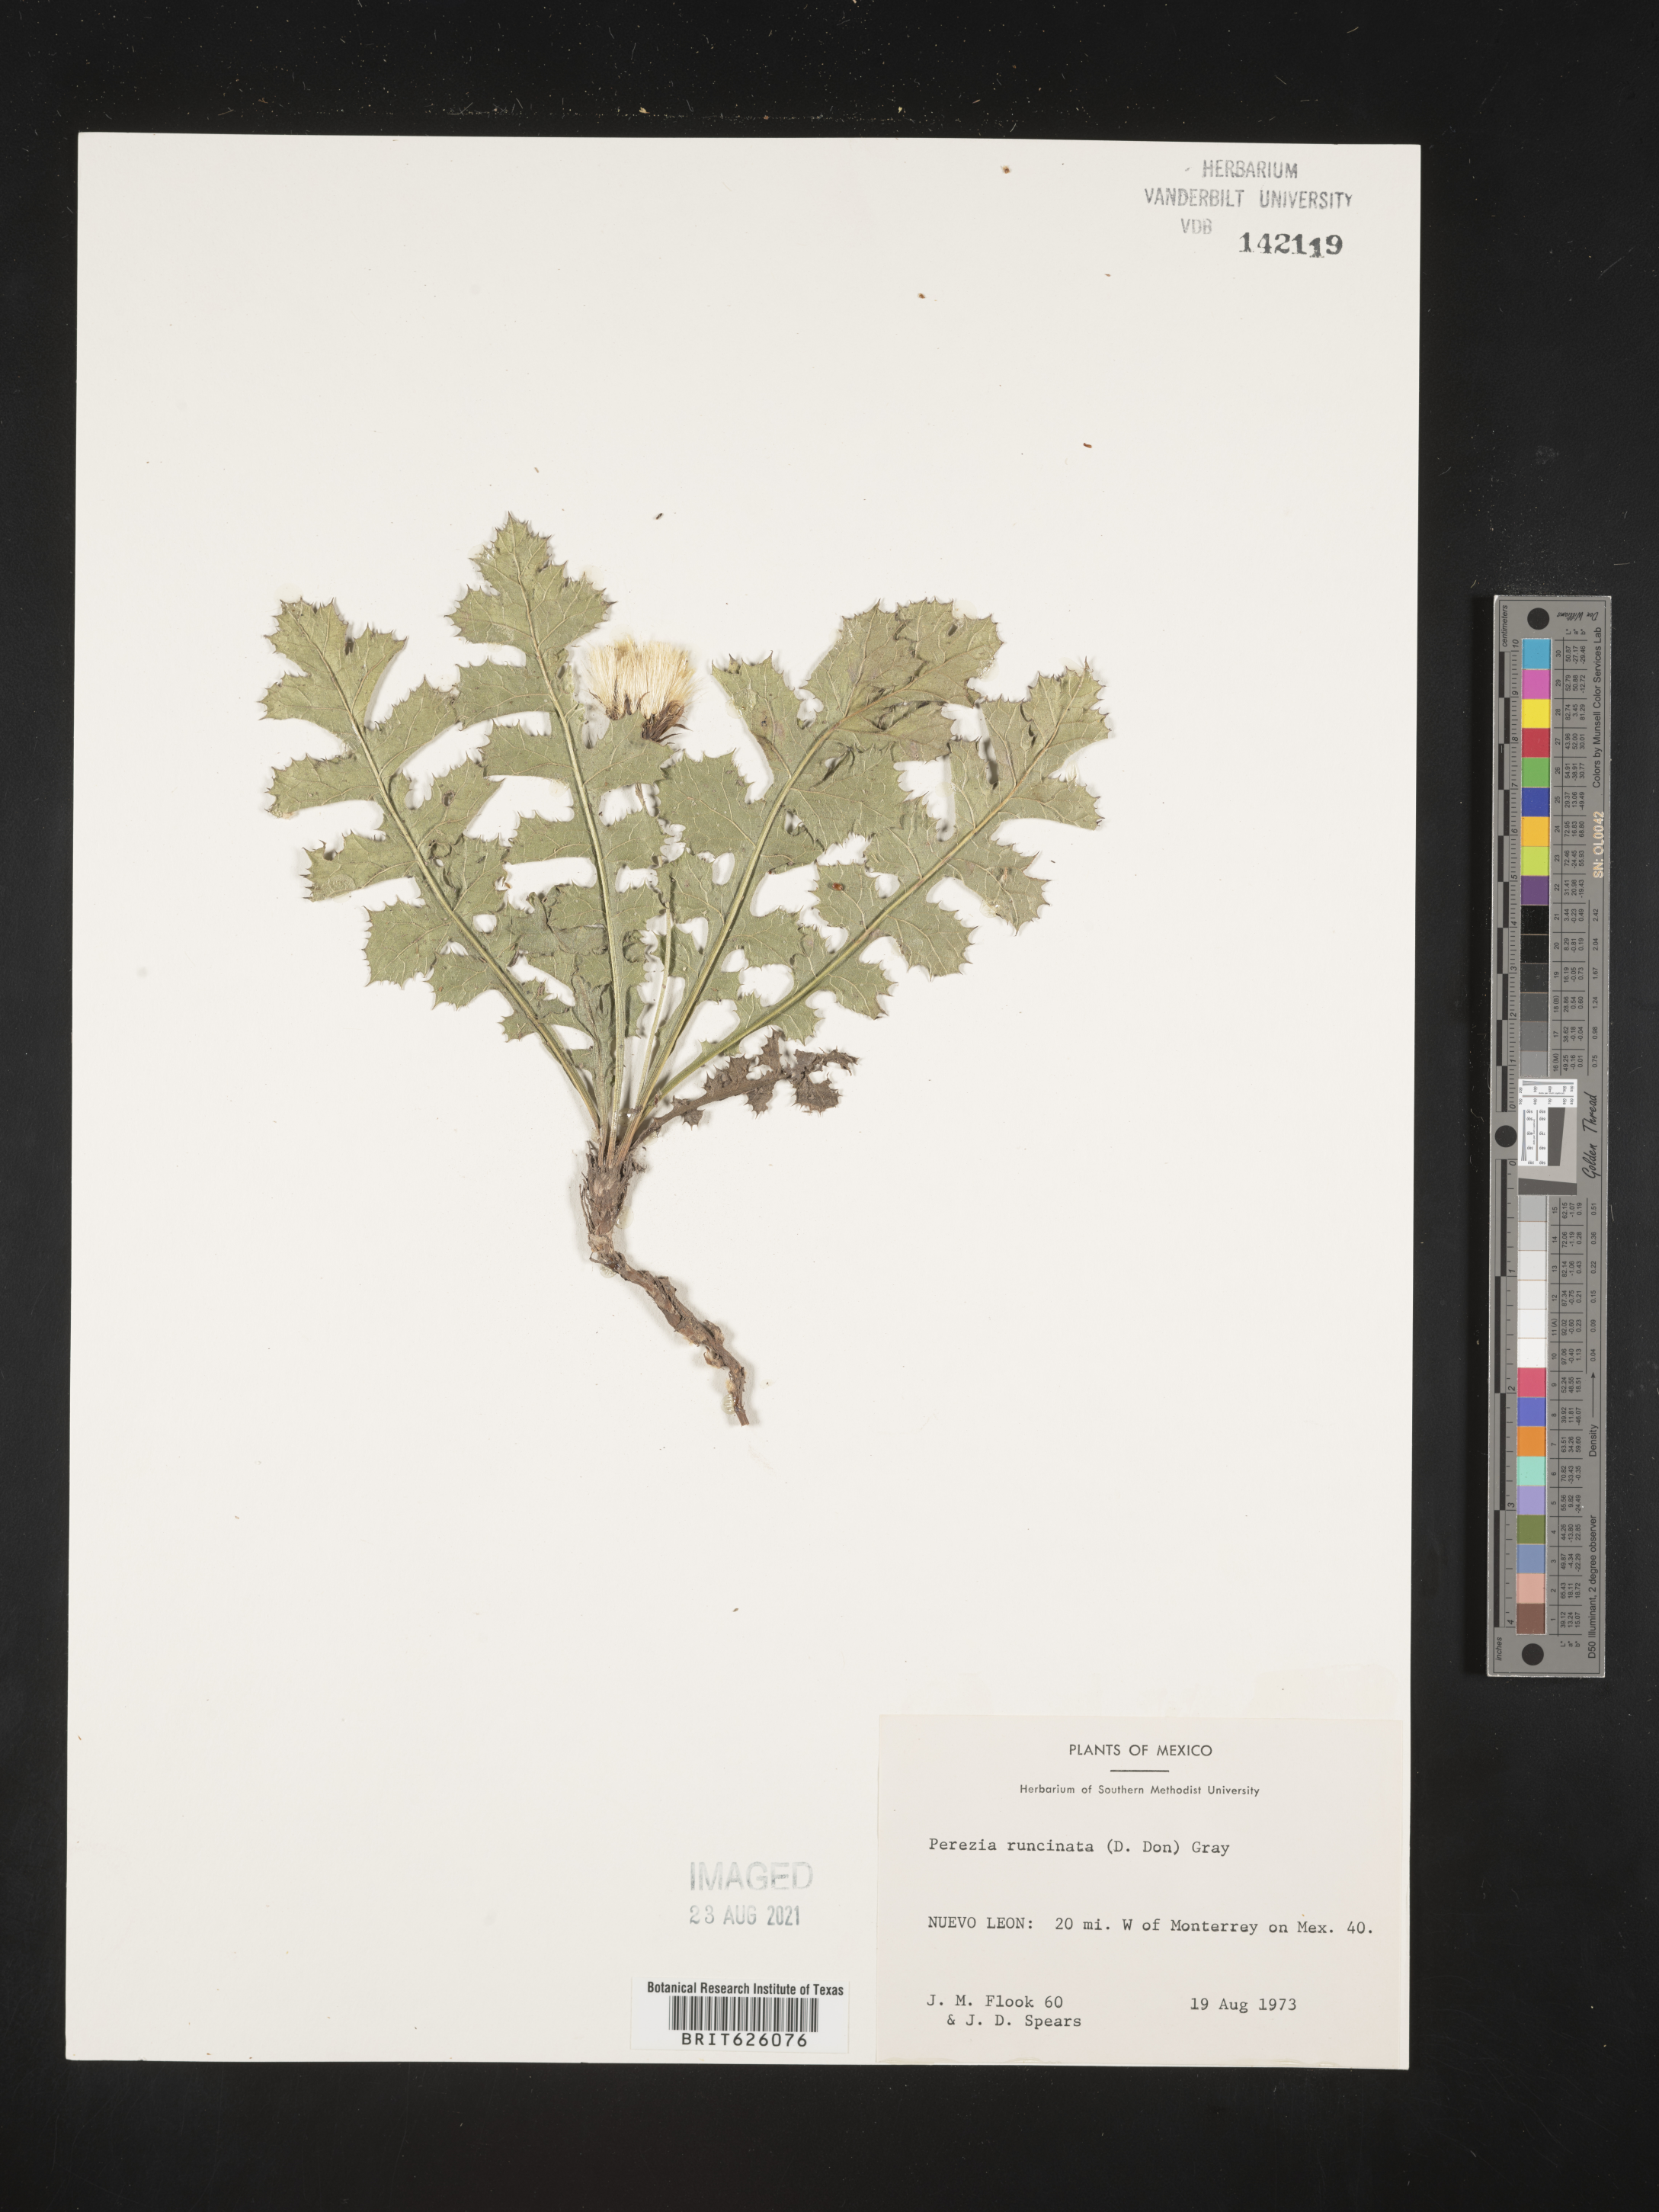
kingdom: Plantae
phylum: Tracheophyta
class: Magnoliopsida
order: Asterales
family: Asteraceae
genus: Perezia
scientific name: Perezia
